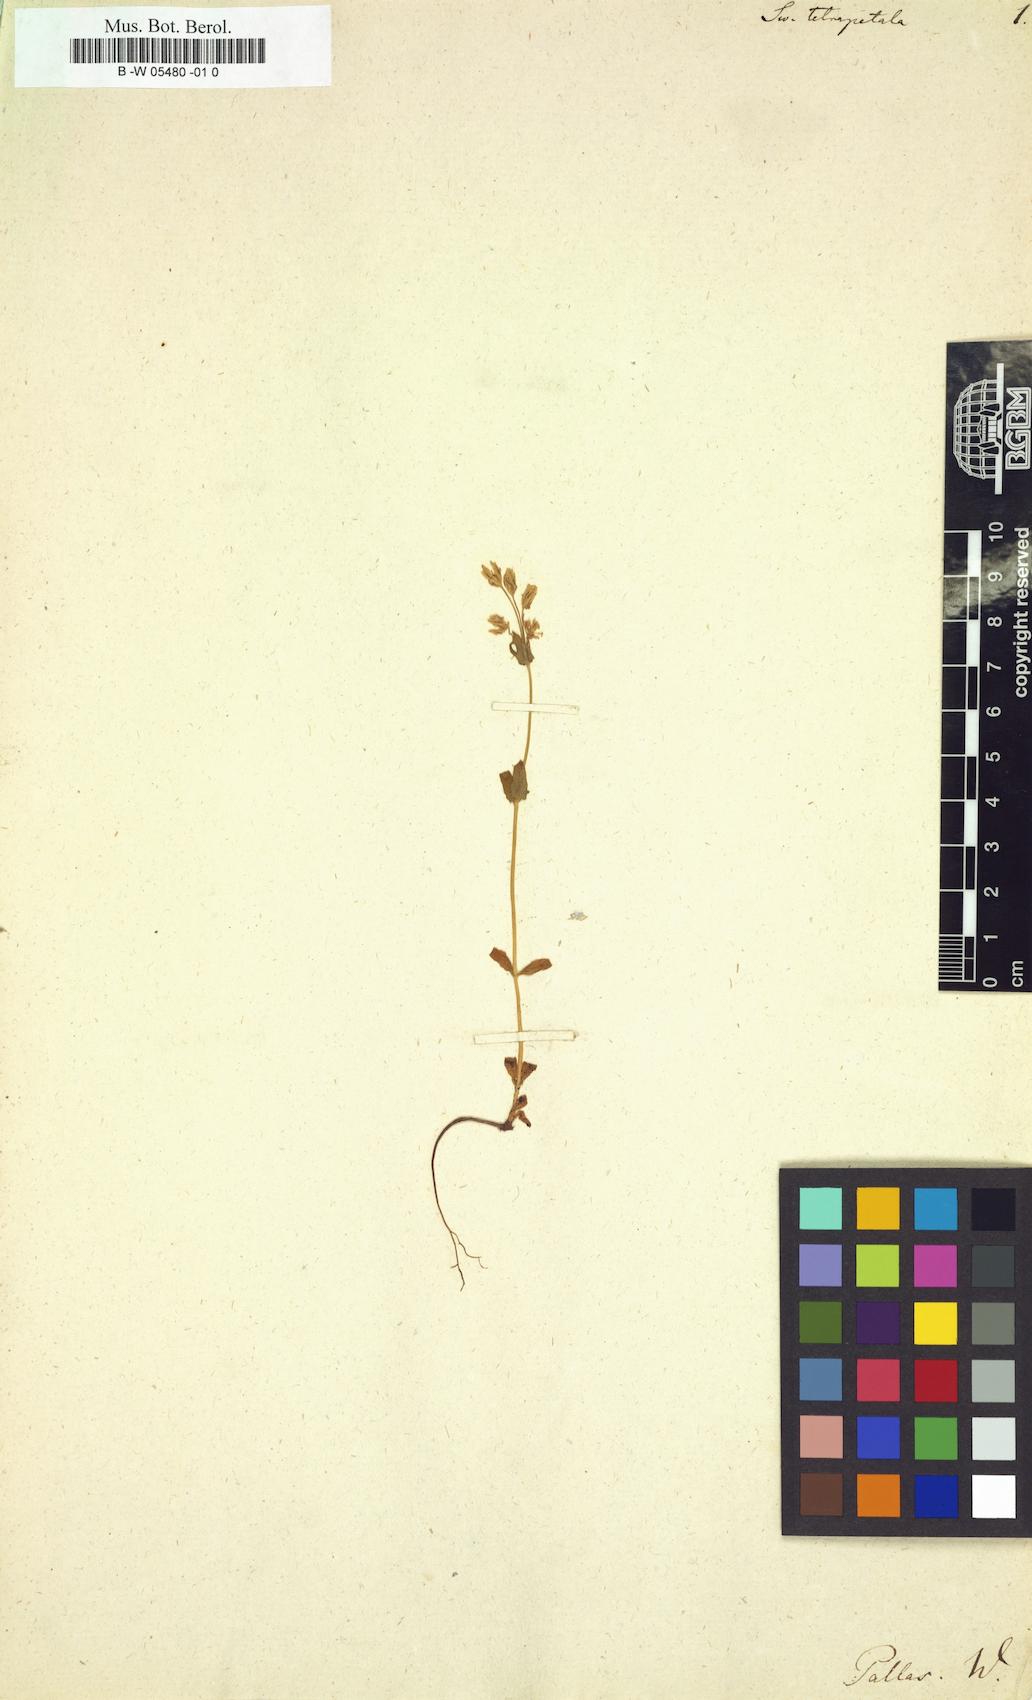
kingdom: Plantae
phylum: Tracheophyta
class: Magnoliopsida
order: Gentianales
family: Gentianaceae
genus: Swertia
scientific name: Swertia tetrapetala
